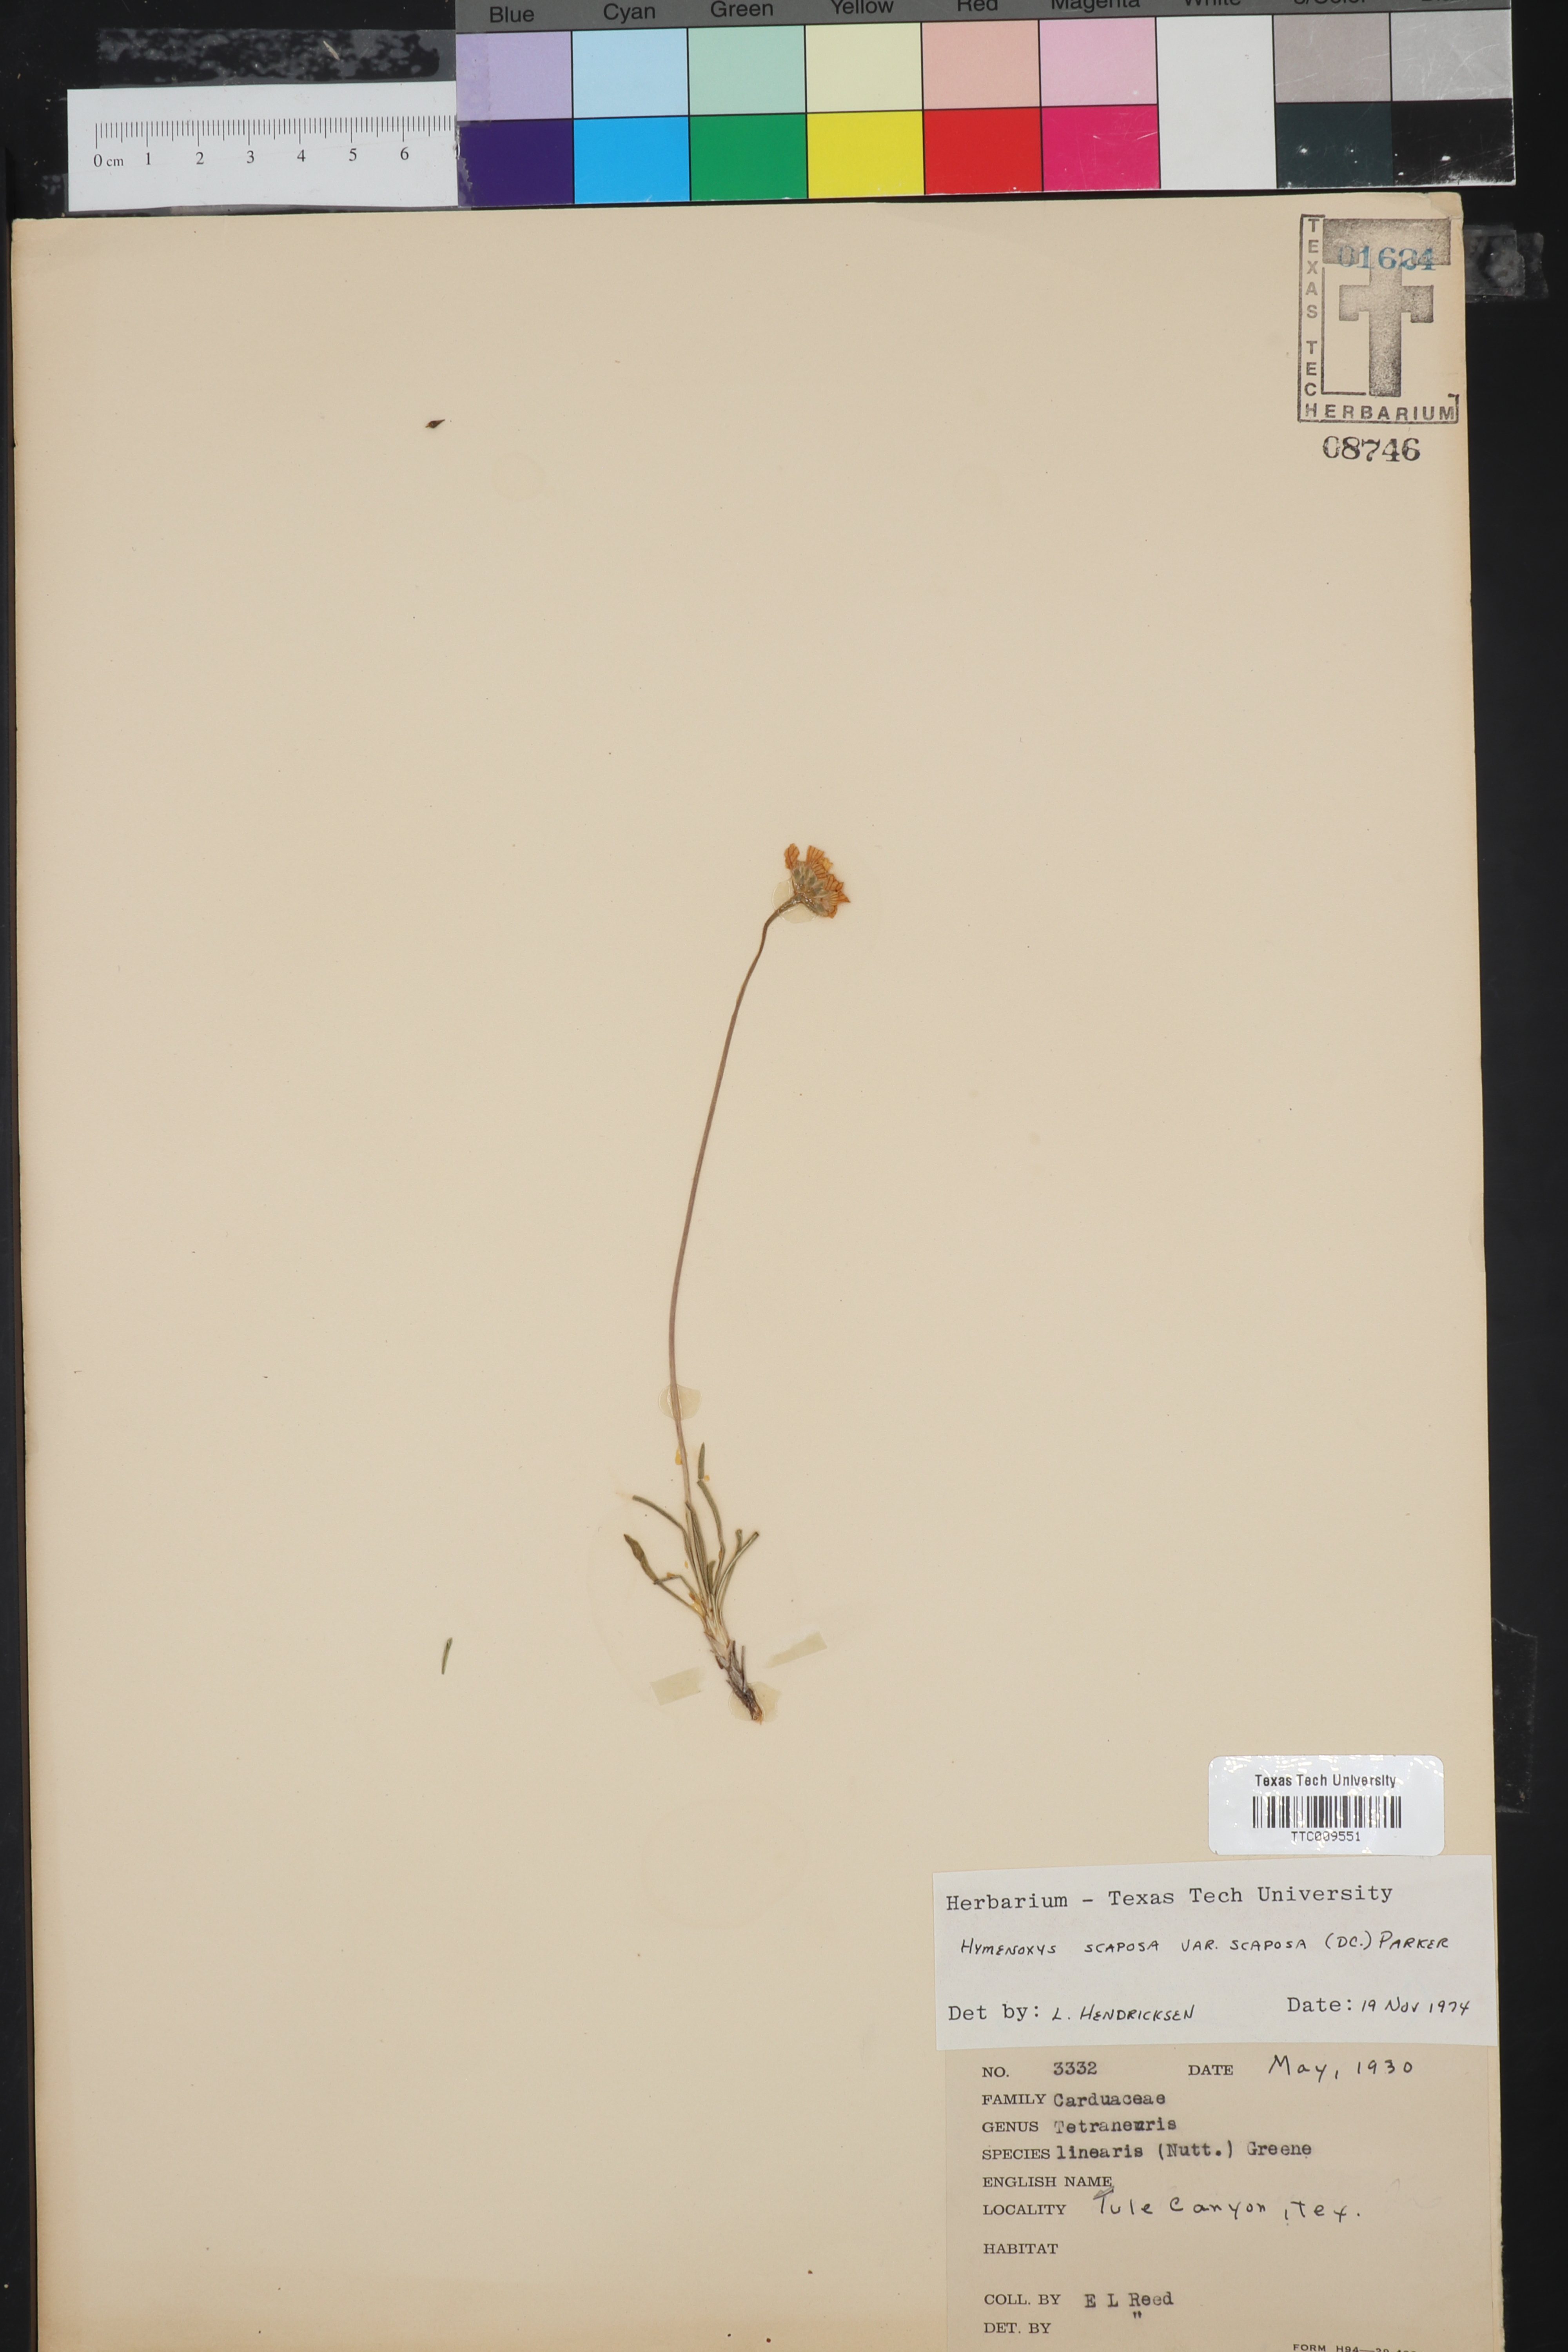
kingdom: Plantae
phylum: Tracheophyta
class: Magnoliopsida
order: Asterales
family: Asteraceae
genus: Tetraneuris
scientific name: Tetraneuris scaposa
